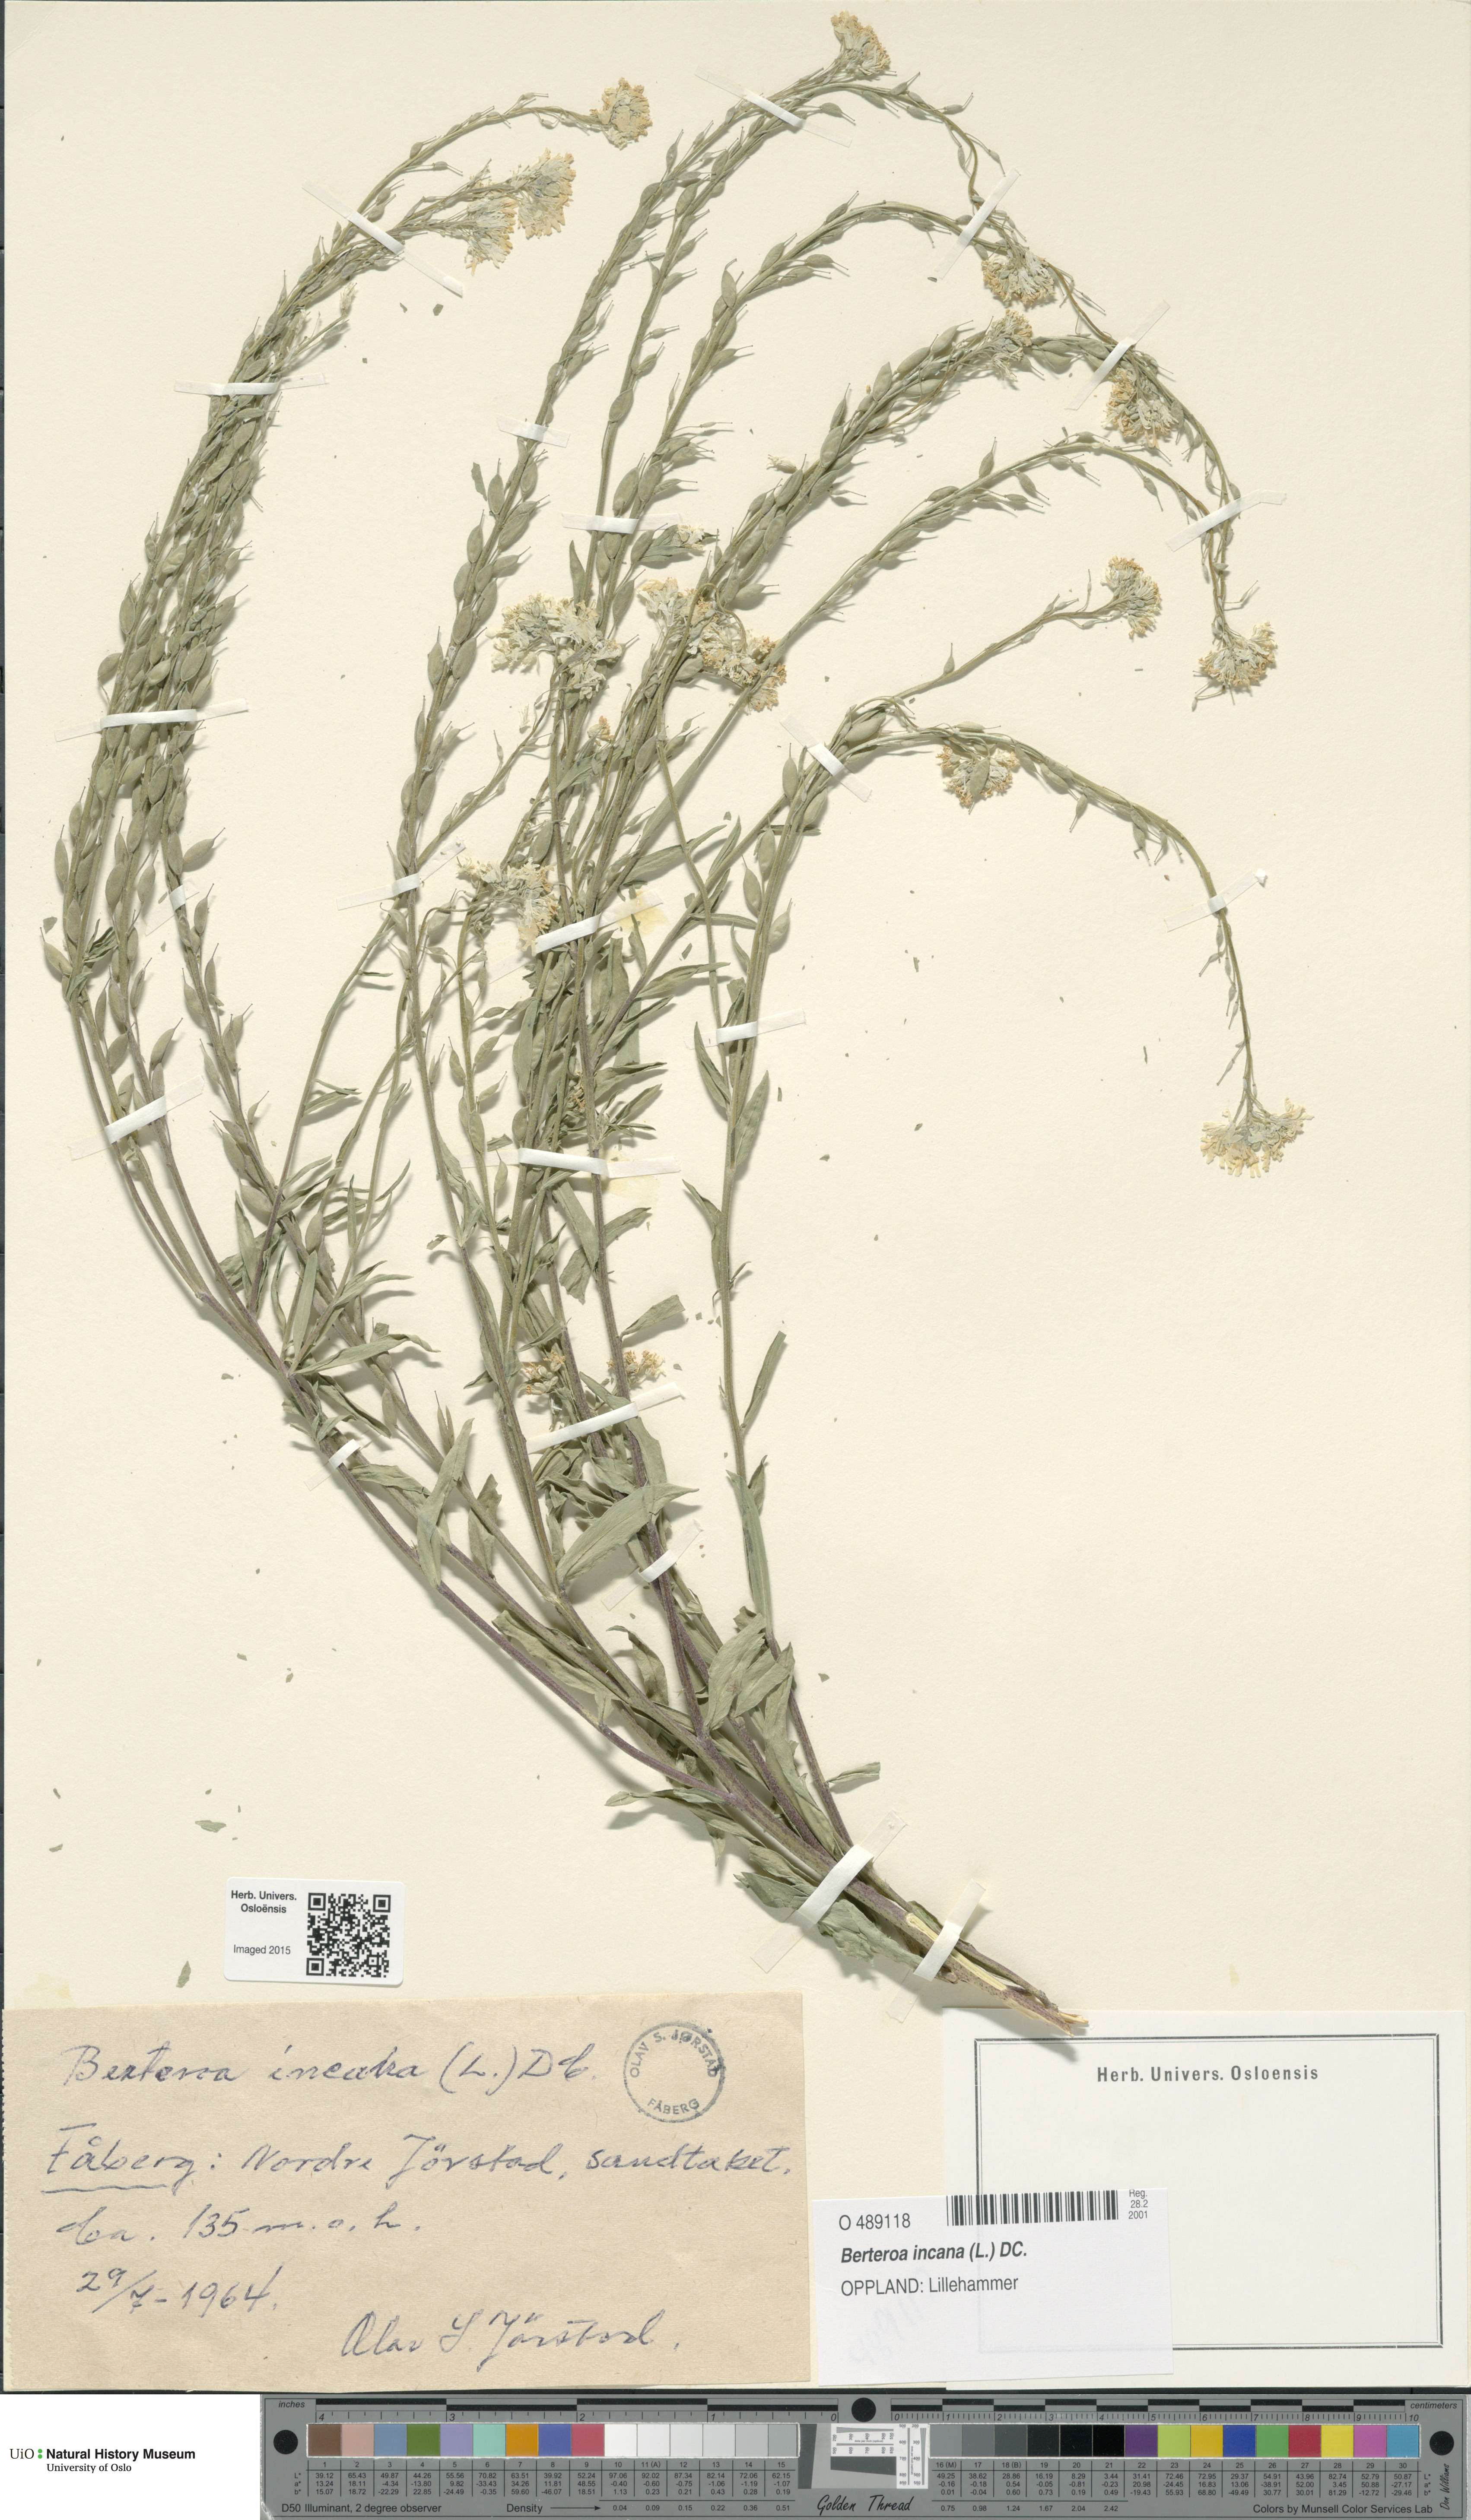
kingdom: Plantae
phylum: Tracheophyta
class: Magnoliopsida
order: Brassicales
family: Brassicaceae
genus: Berteroa
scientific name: Berteroa incana
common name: Hoary alison
